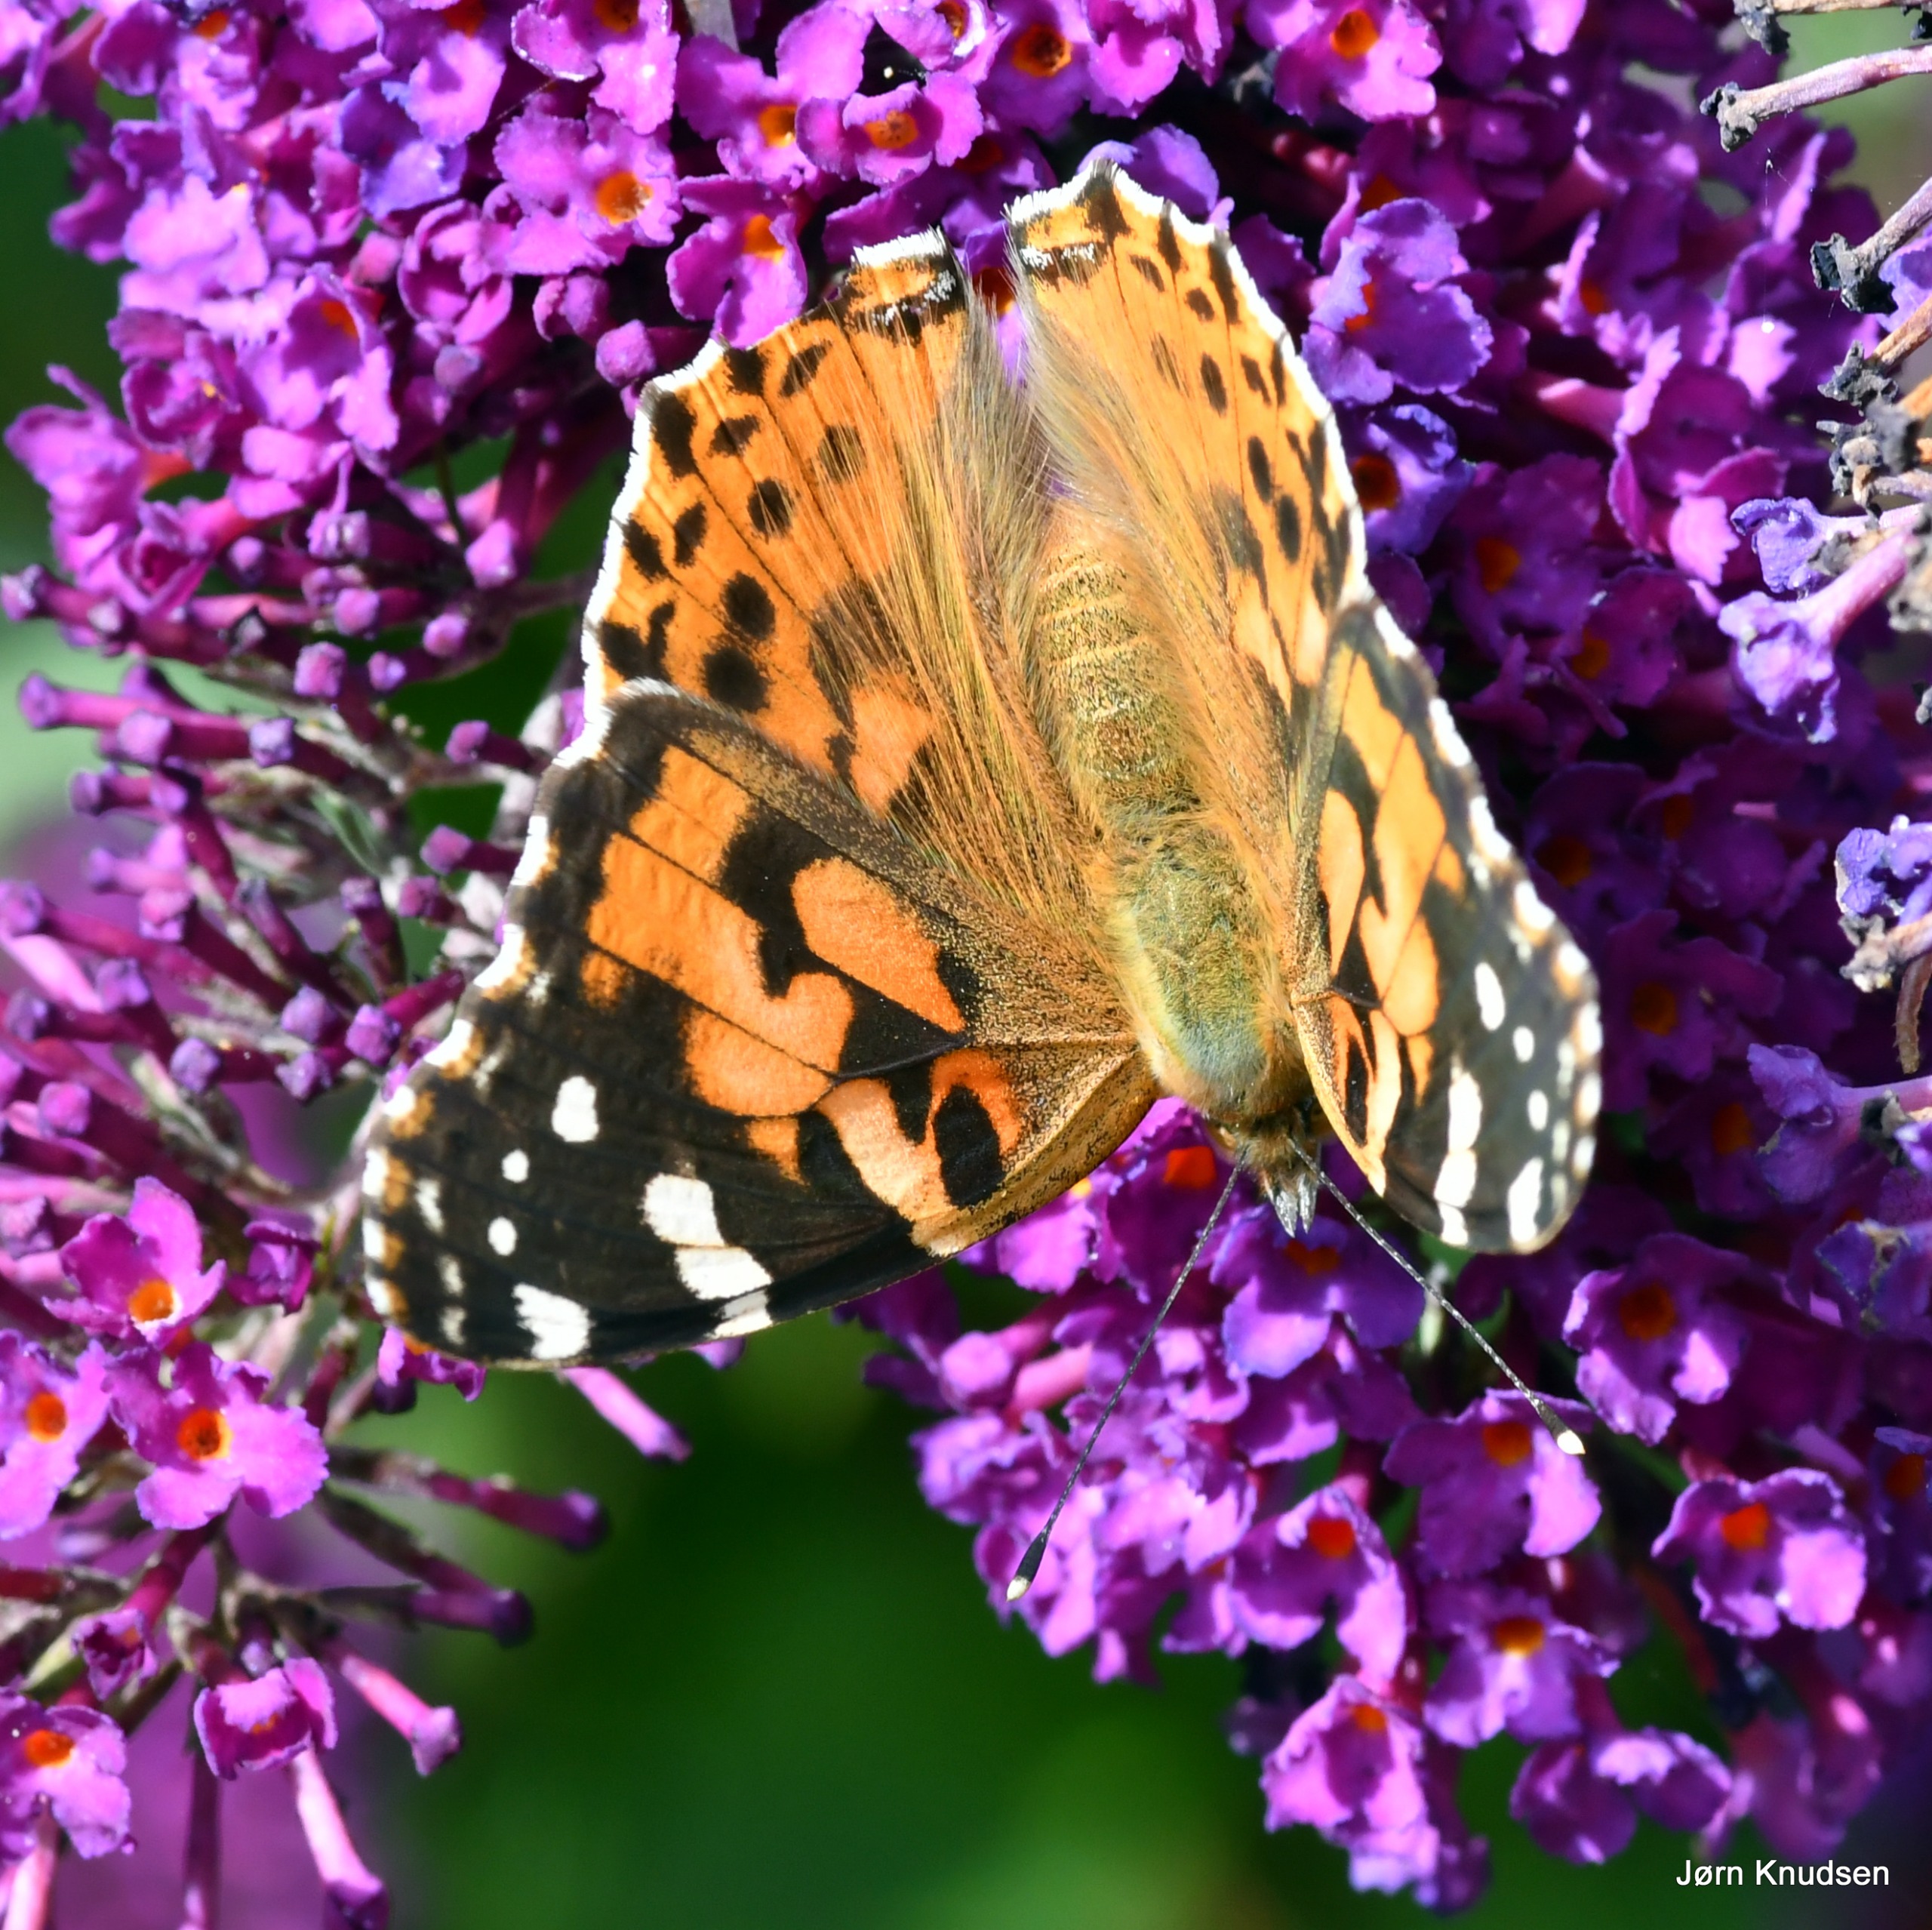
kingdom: Animalia
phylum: Arthropoda
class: Insecta
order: Lepidoptera
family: Nymphalidae
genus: Vanessa
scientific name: Vanessa cardui
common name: Tidselsommerfugl
